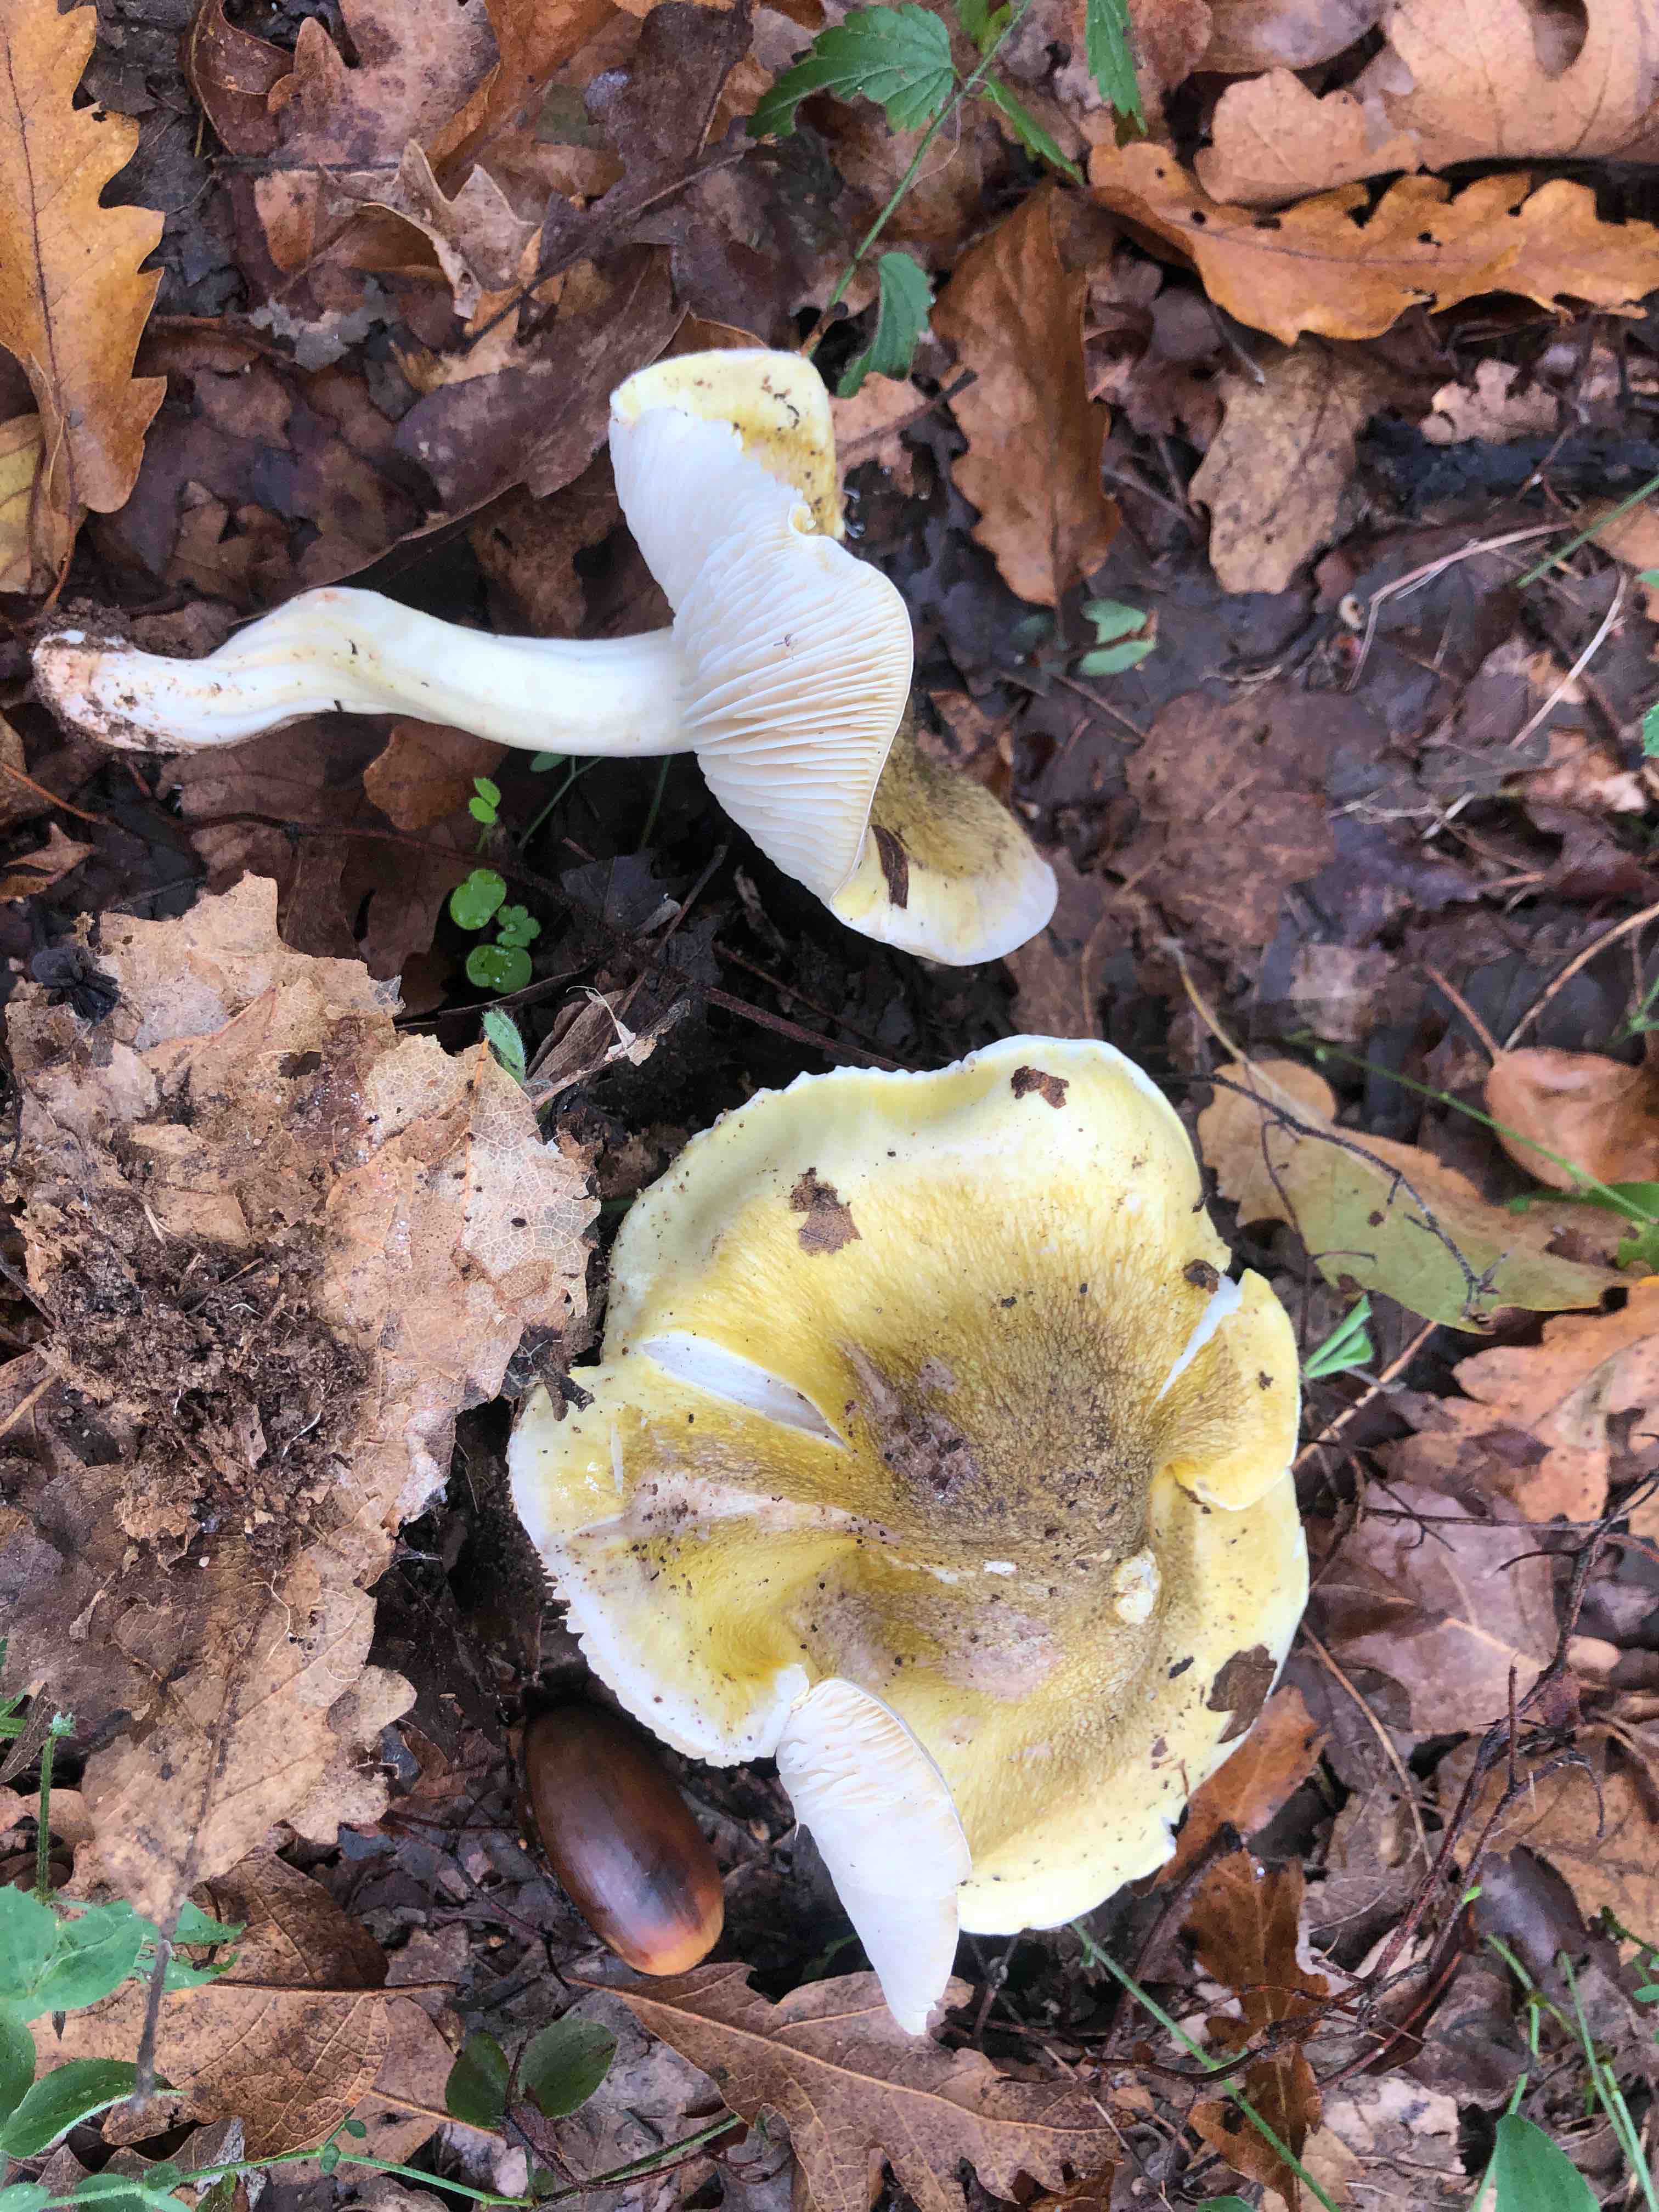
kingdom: Fungi
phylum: Basidiomycota
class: Agaricomycetes
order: Agaricales
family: Tricholomataceae
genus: Tricholoma
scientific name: Tricholoma sejunctum
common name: grøngul ridderhat
